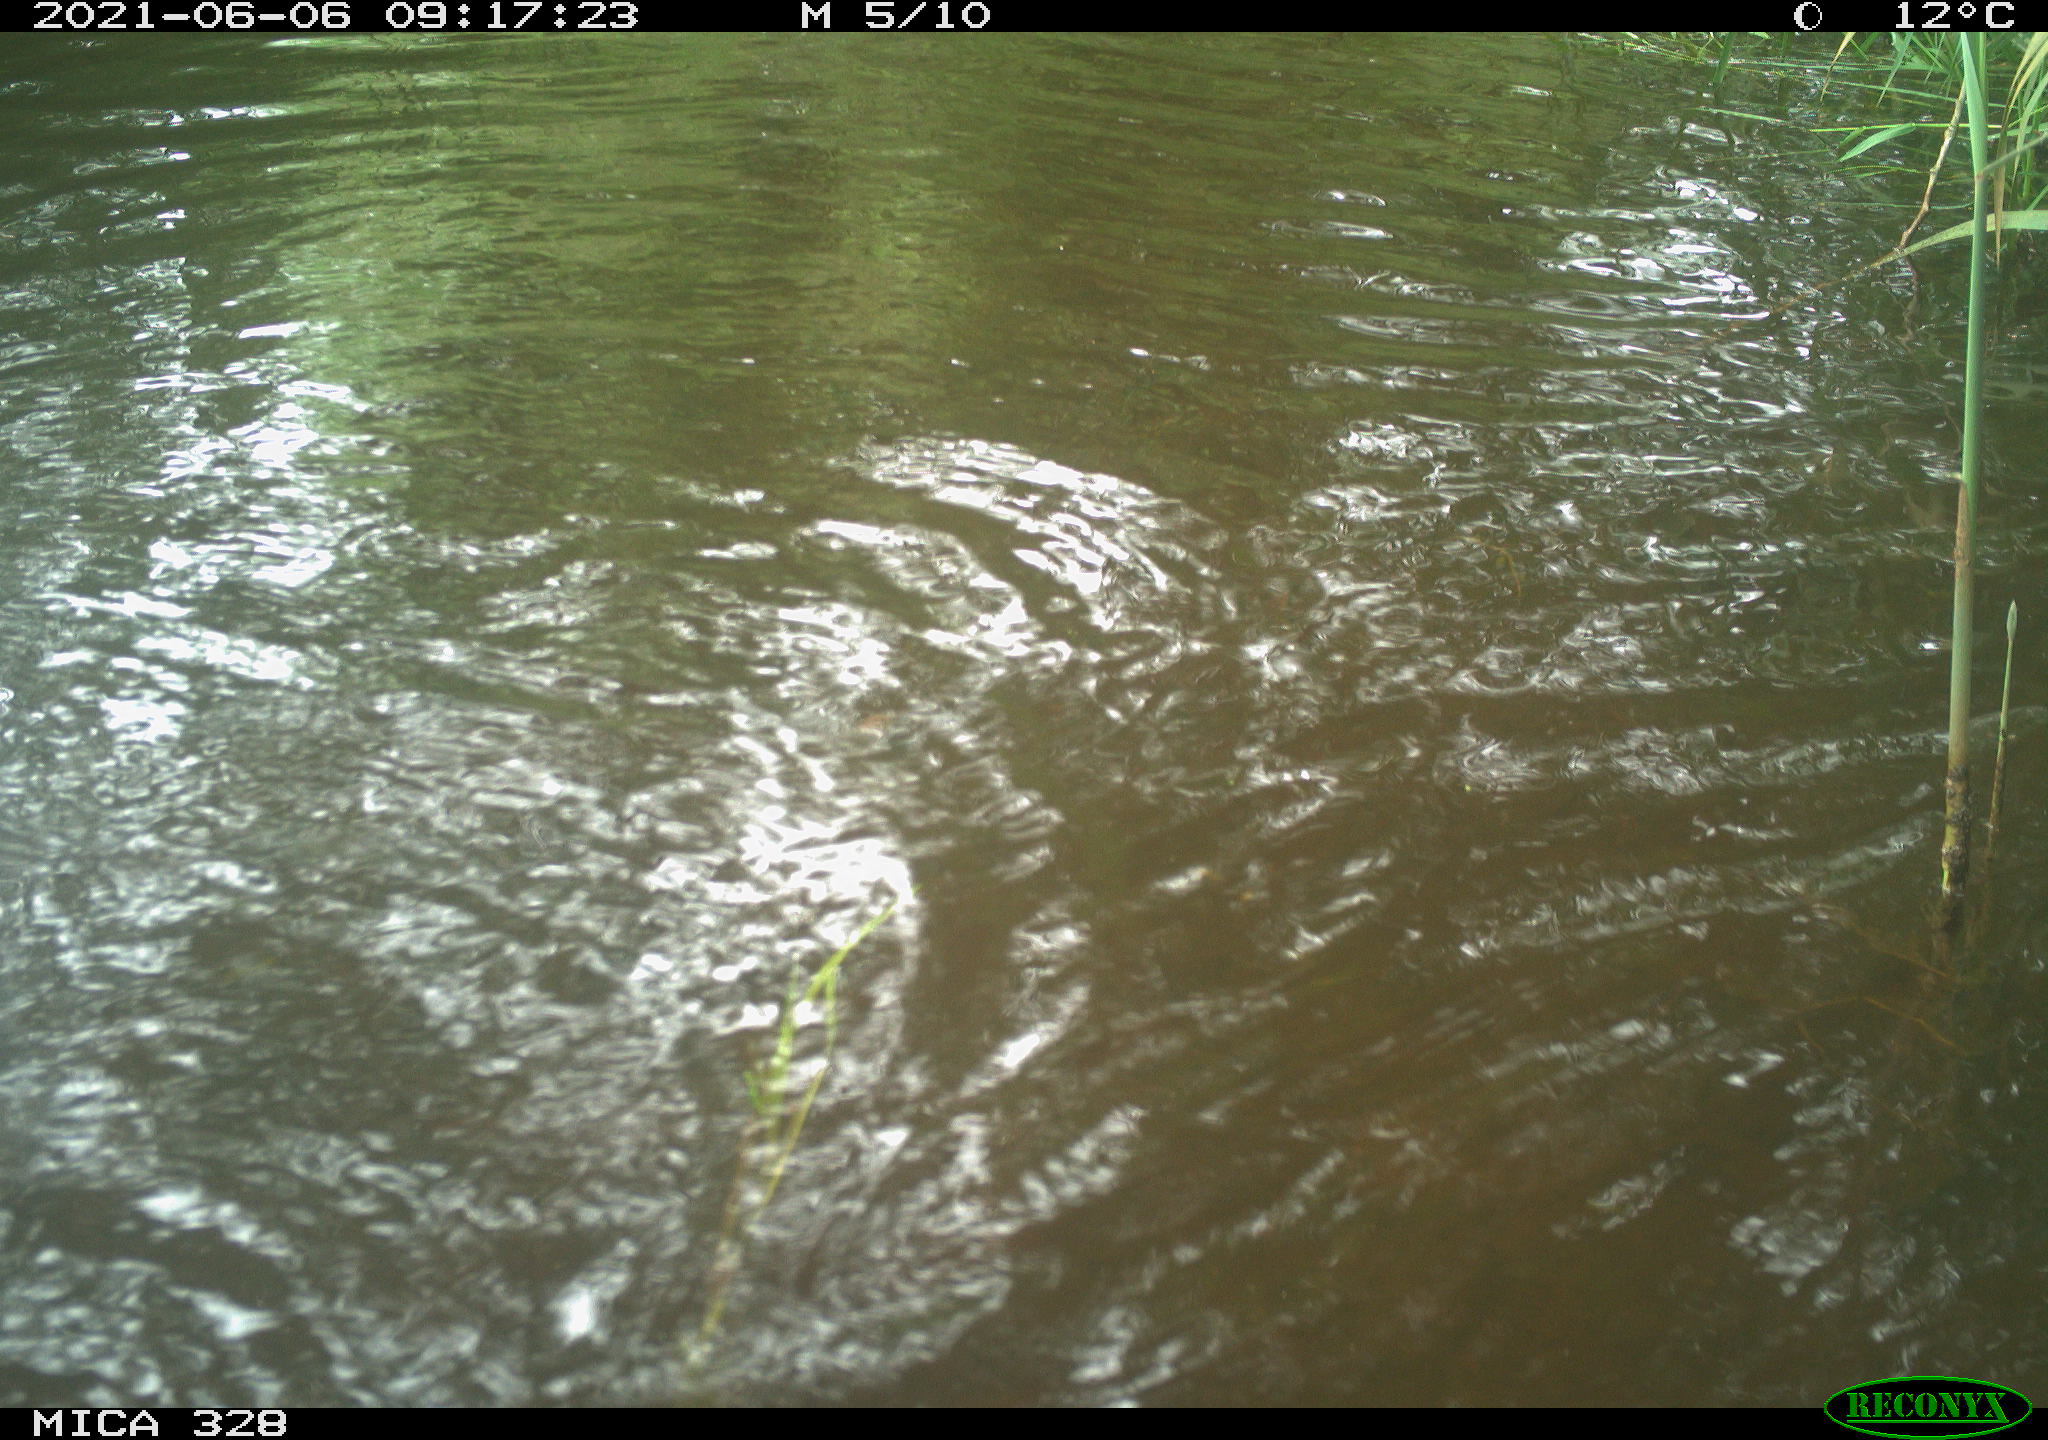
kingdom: Animalia
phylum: Chordata
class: Mammalia
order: Rodentia
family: Cricetidae
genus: Ondatra
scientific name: Ondatra zibethicus
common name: Muskrat
